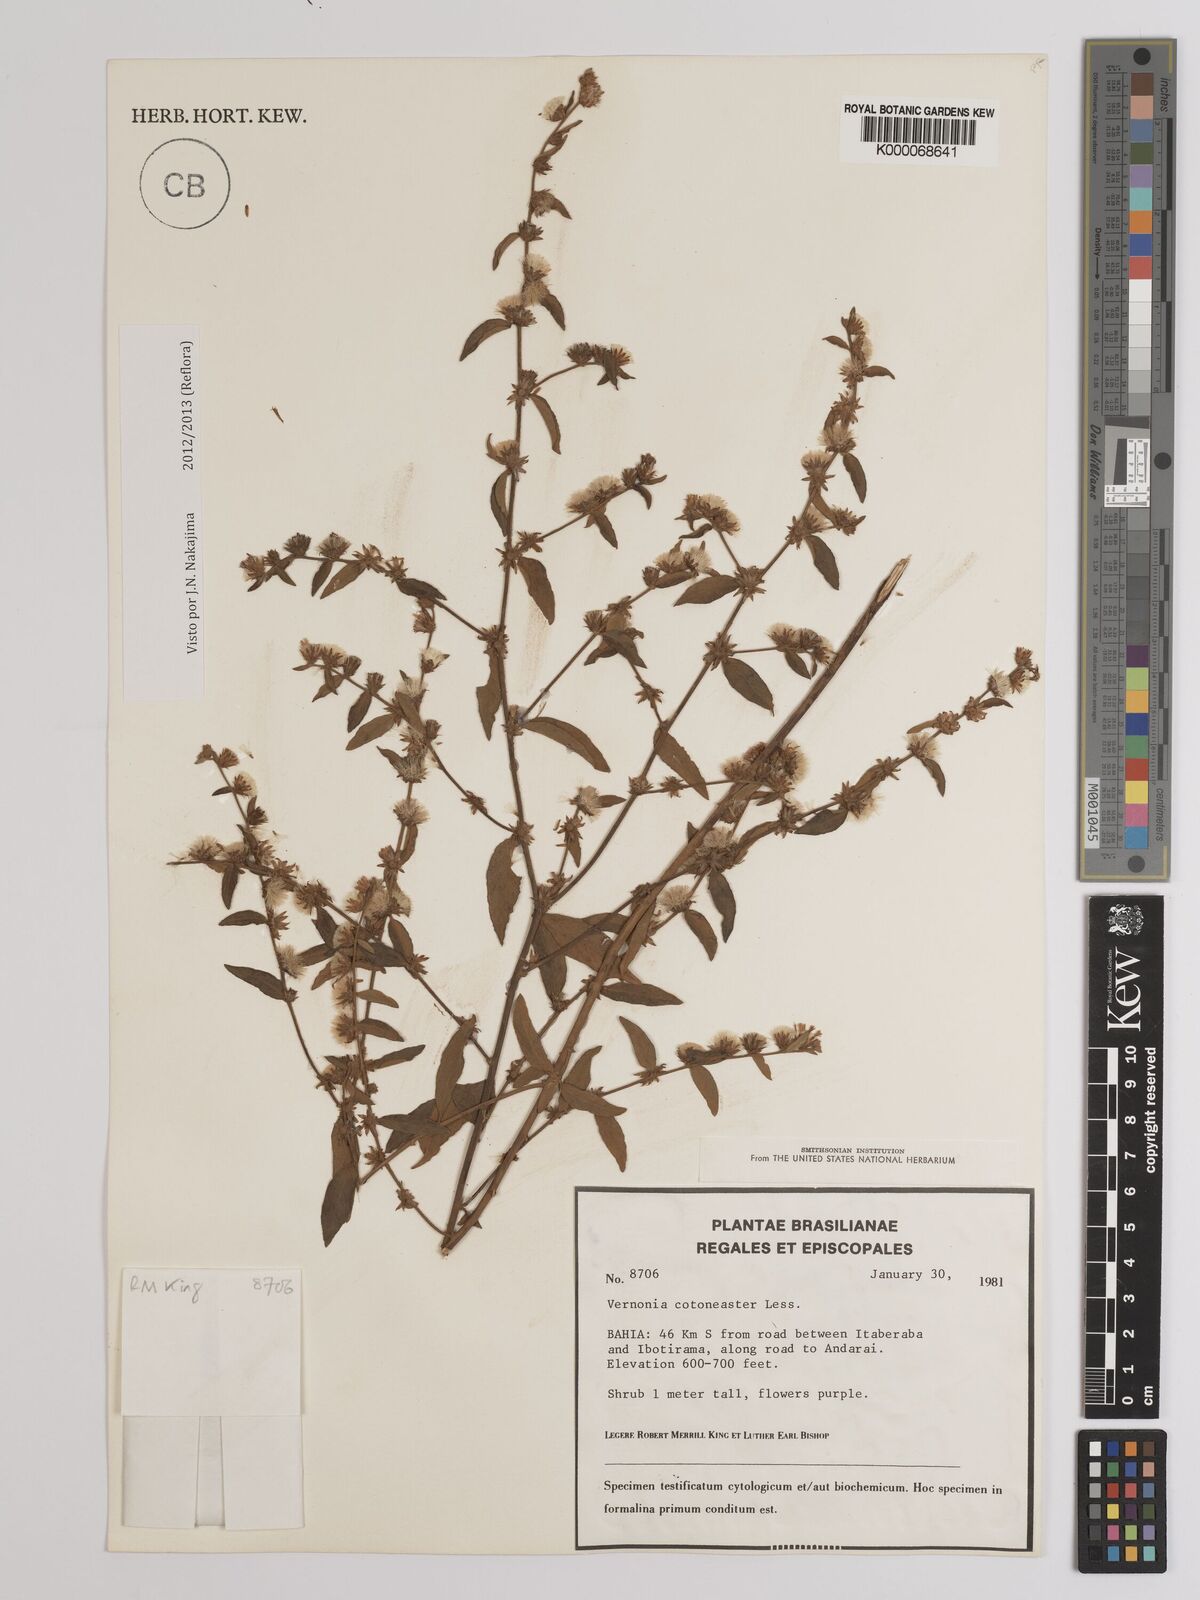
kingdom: Plantae
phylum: Tracheophyta
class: Magnoliopsida
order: Asterales
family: Asteraceae
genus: Lepidaploa
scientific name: Lepidaploa cotoneaster
